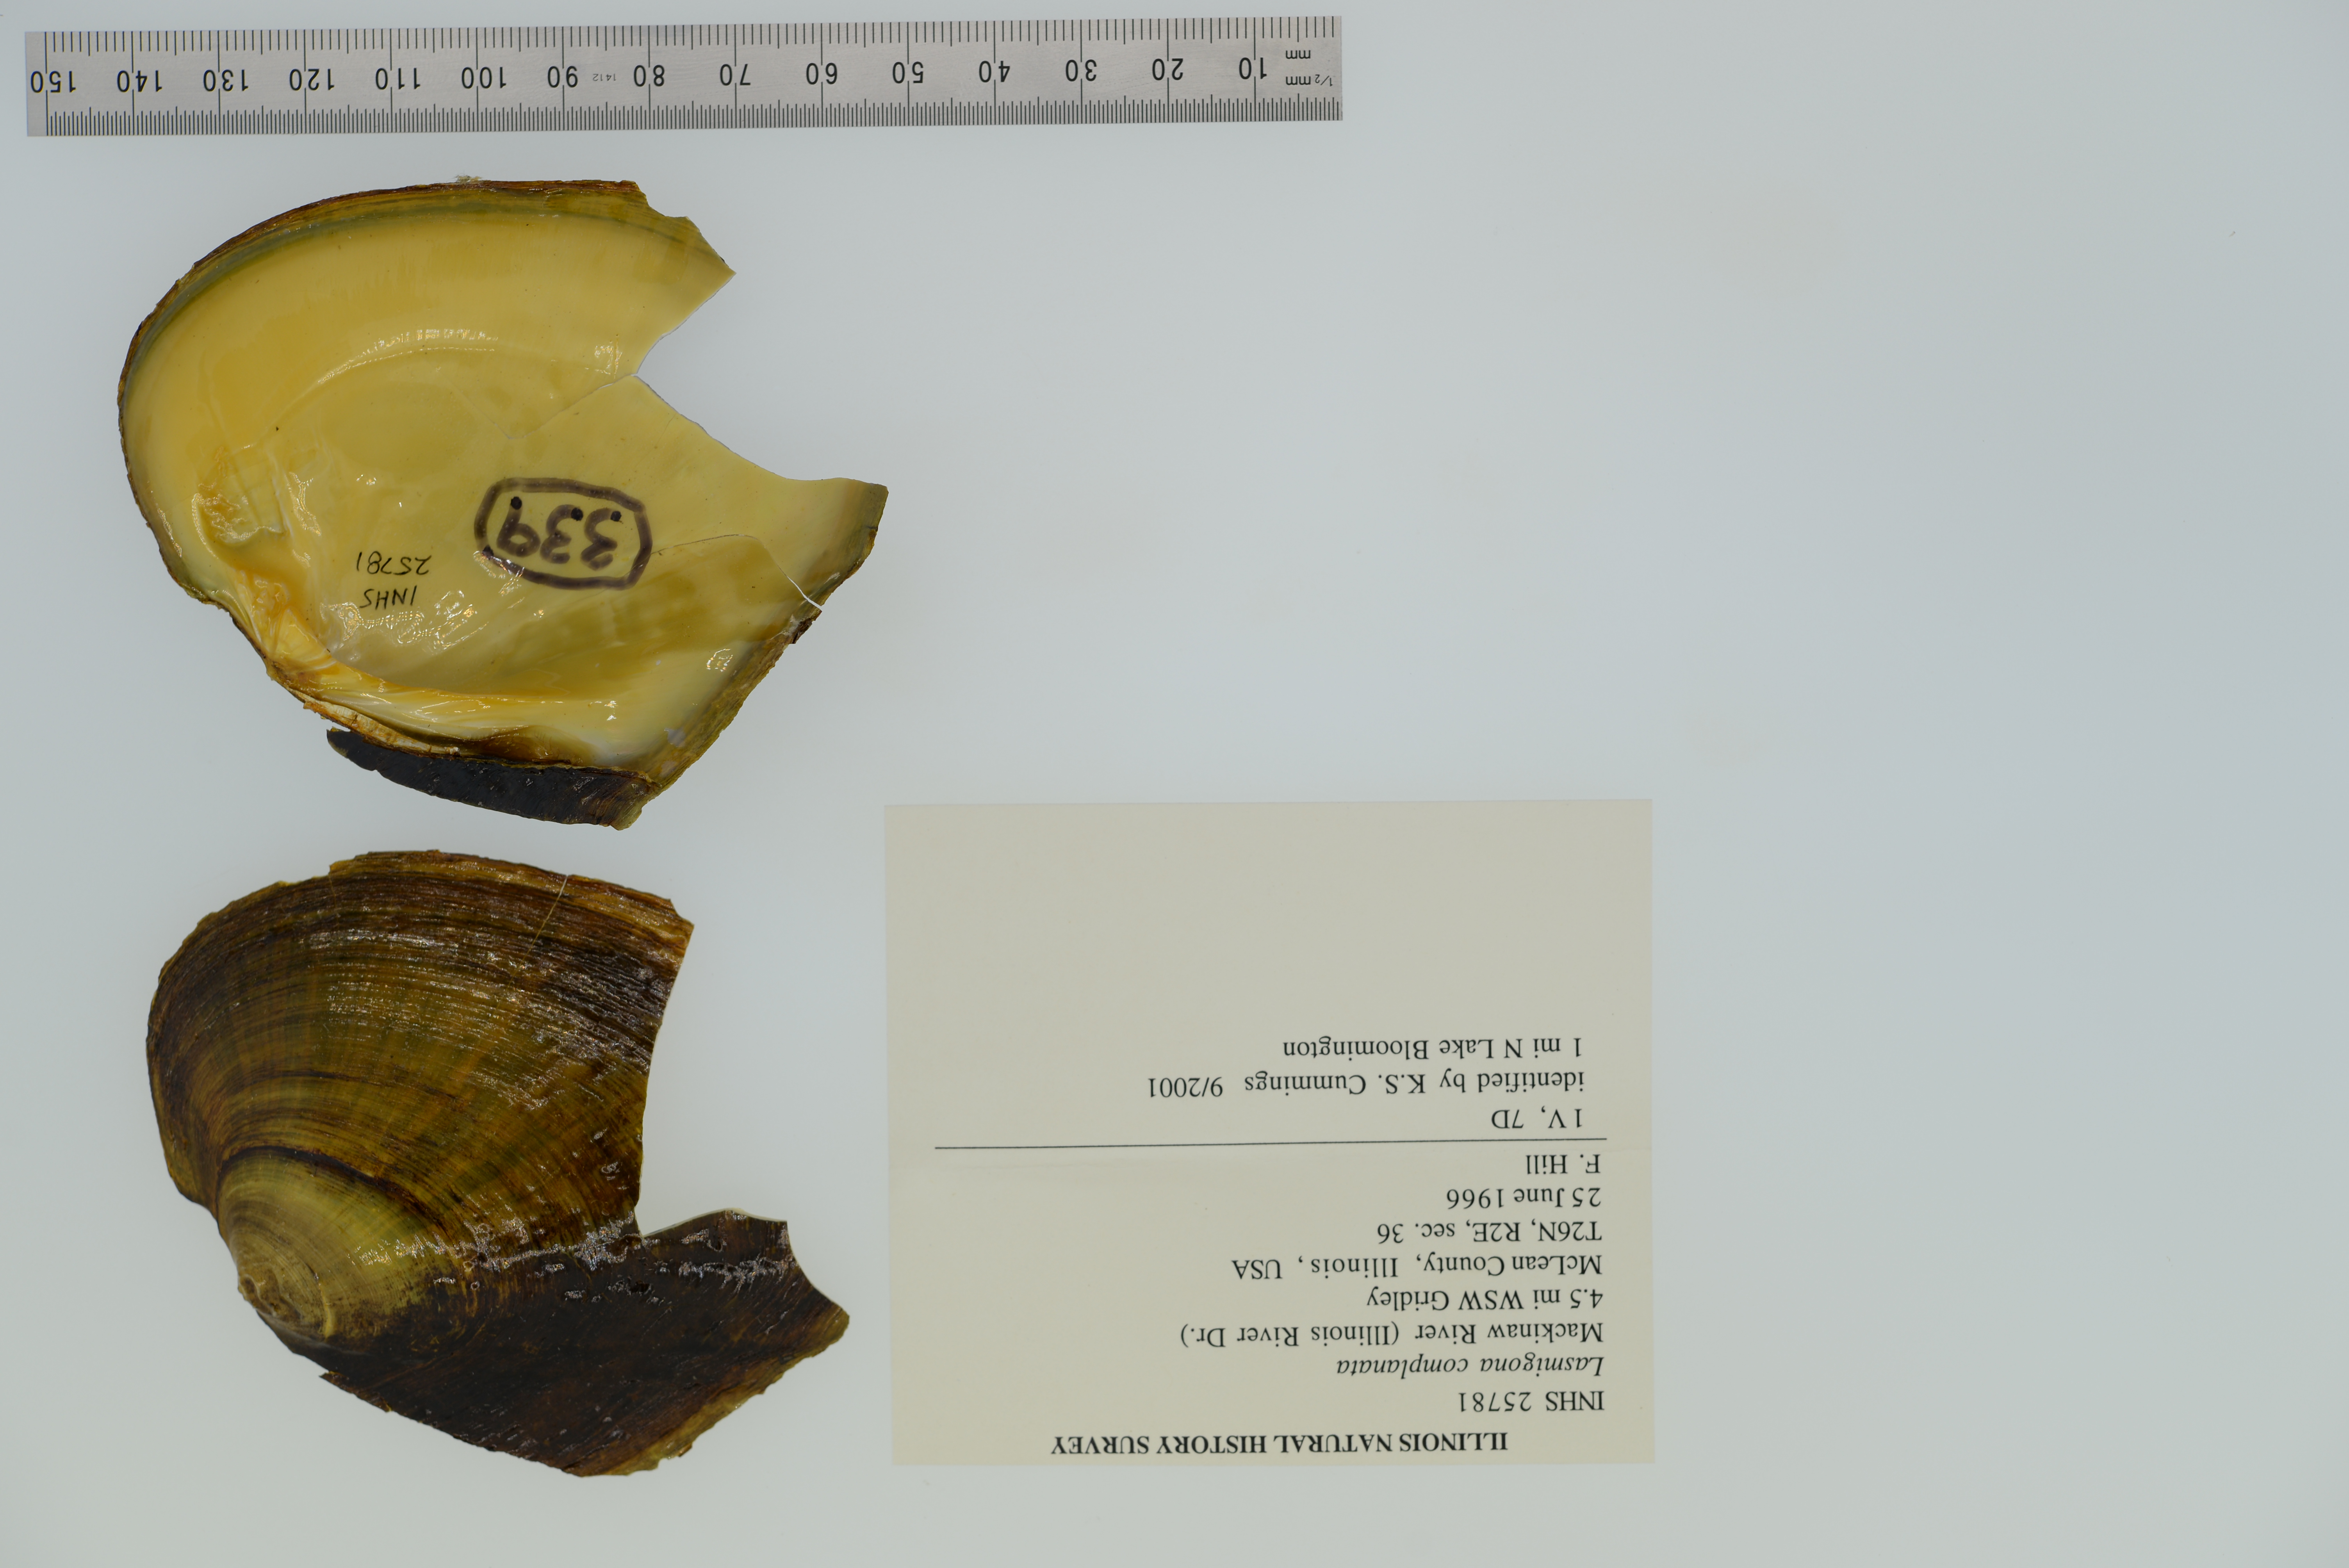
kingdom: Animalia
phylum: Mollusca
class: Bivalvia
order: Unionida
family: Unionidae
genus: Lasmigona
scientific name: Lasmigona complanata
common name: White heelsplitter
